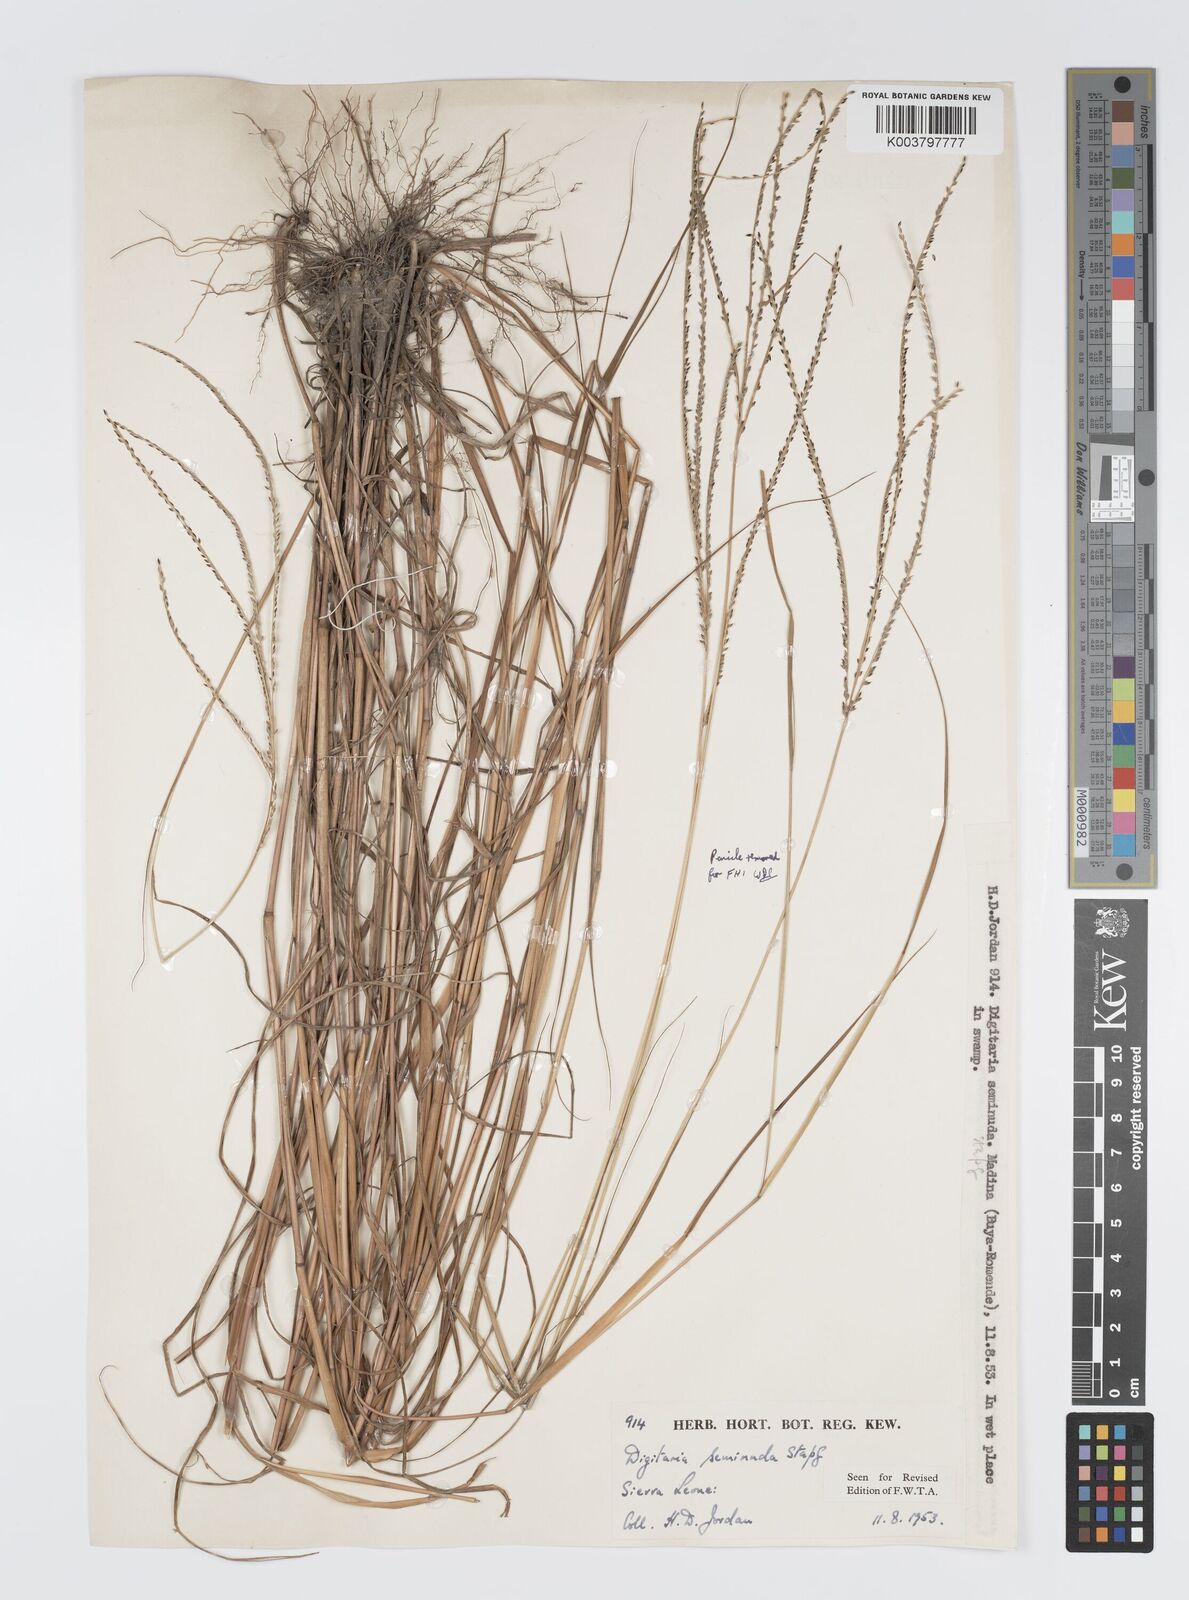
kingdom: Plantae
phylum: Tracheophyta
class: Liliopsida
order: Poales
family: Poaceae
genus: Digitaria
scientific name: Digitaria atrofusca
